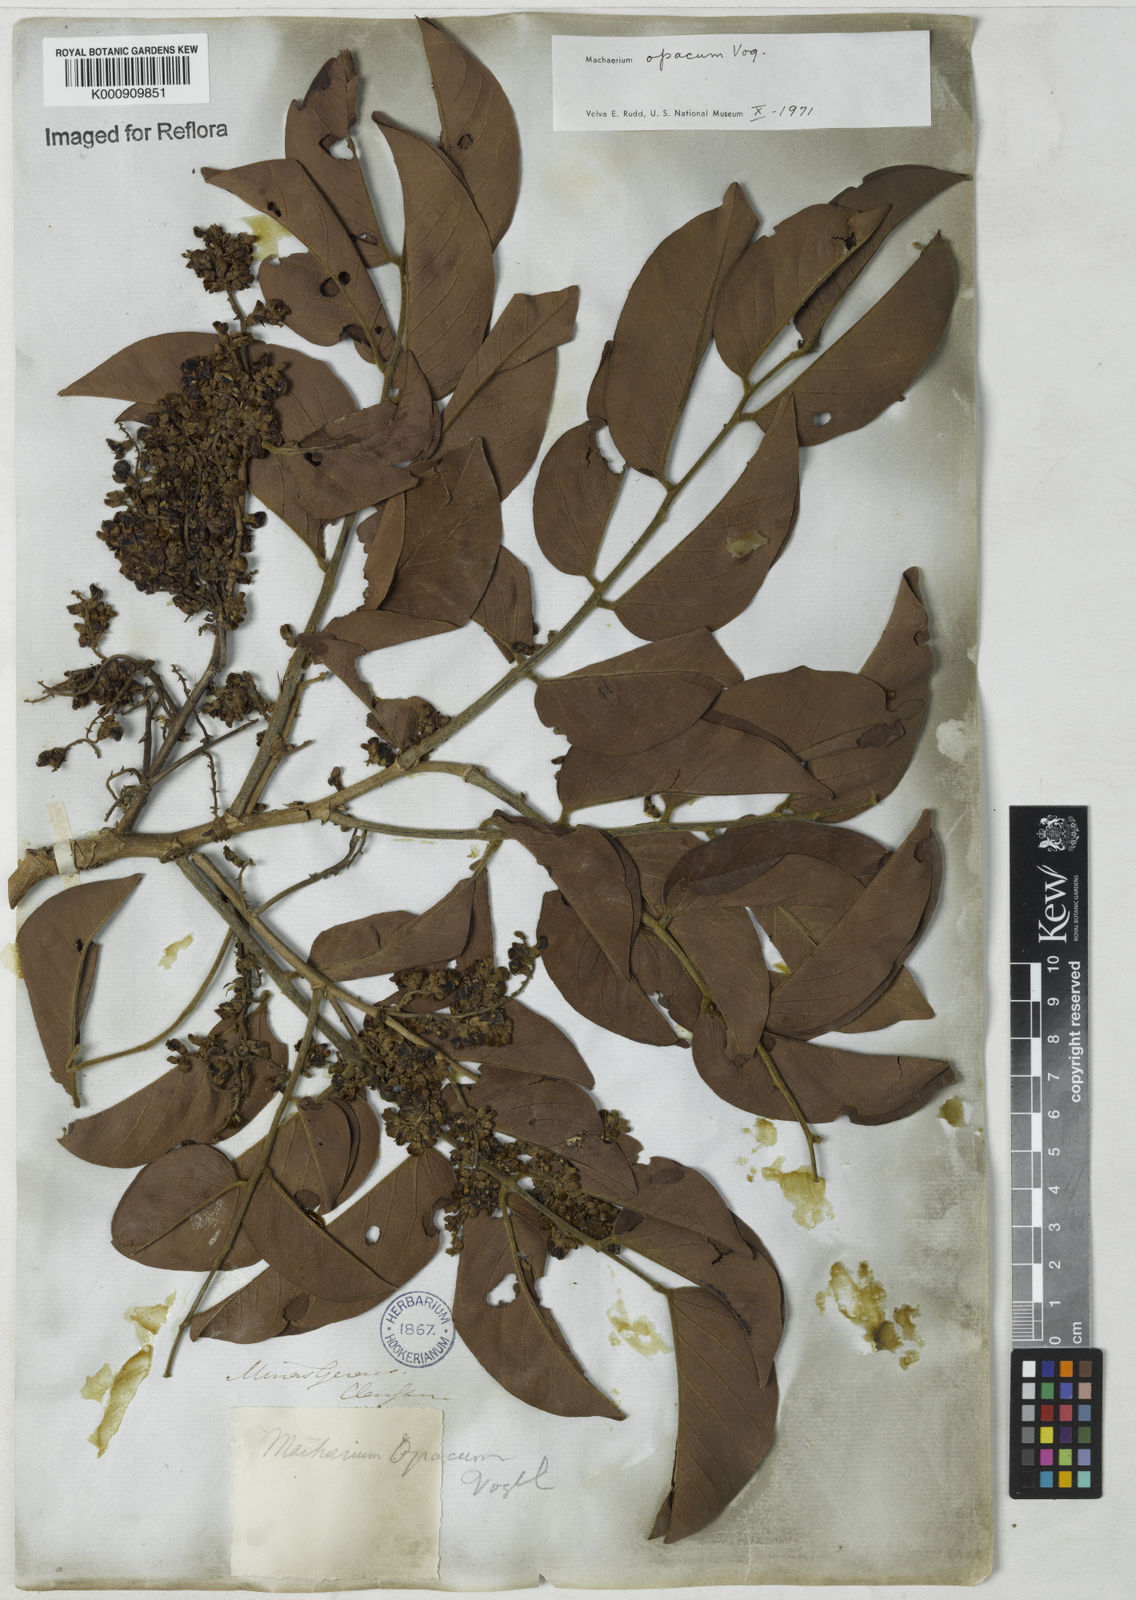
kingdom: Plantae
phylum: Tracheophyta
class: Magnoliopsida
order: Fabales
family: Fabaceae
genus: Machaerium
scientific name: Machaerium opacum
